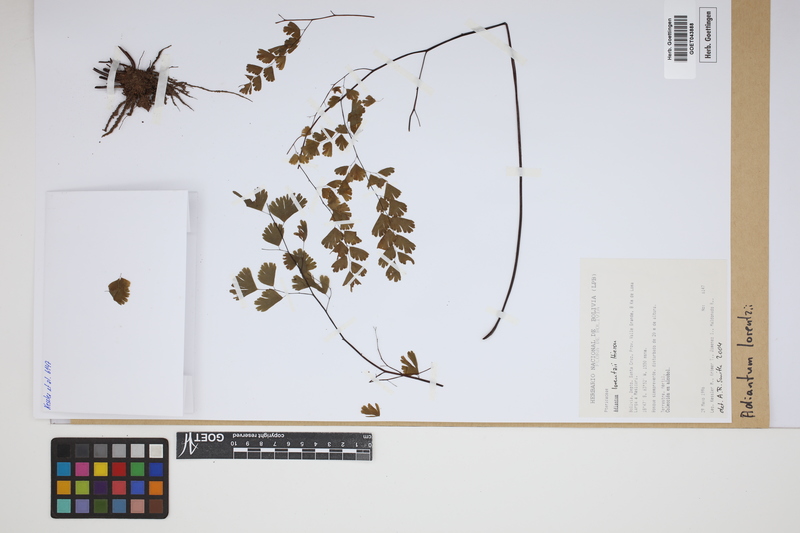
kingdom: Plantae
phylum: Tracheophyta
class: Polypodiopsida
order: Polypodiales
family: Pteridaceae
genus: Adiantum
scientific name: Adiantum lorentzii
